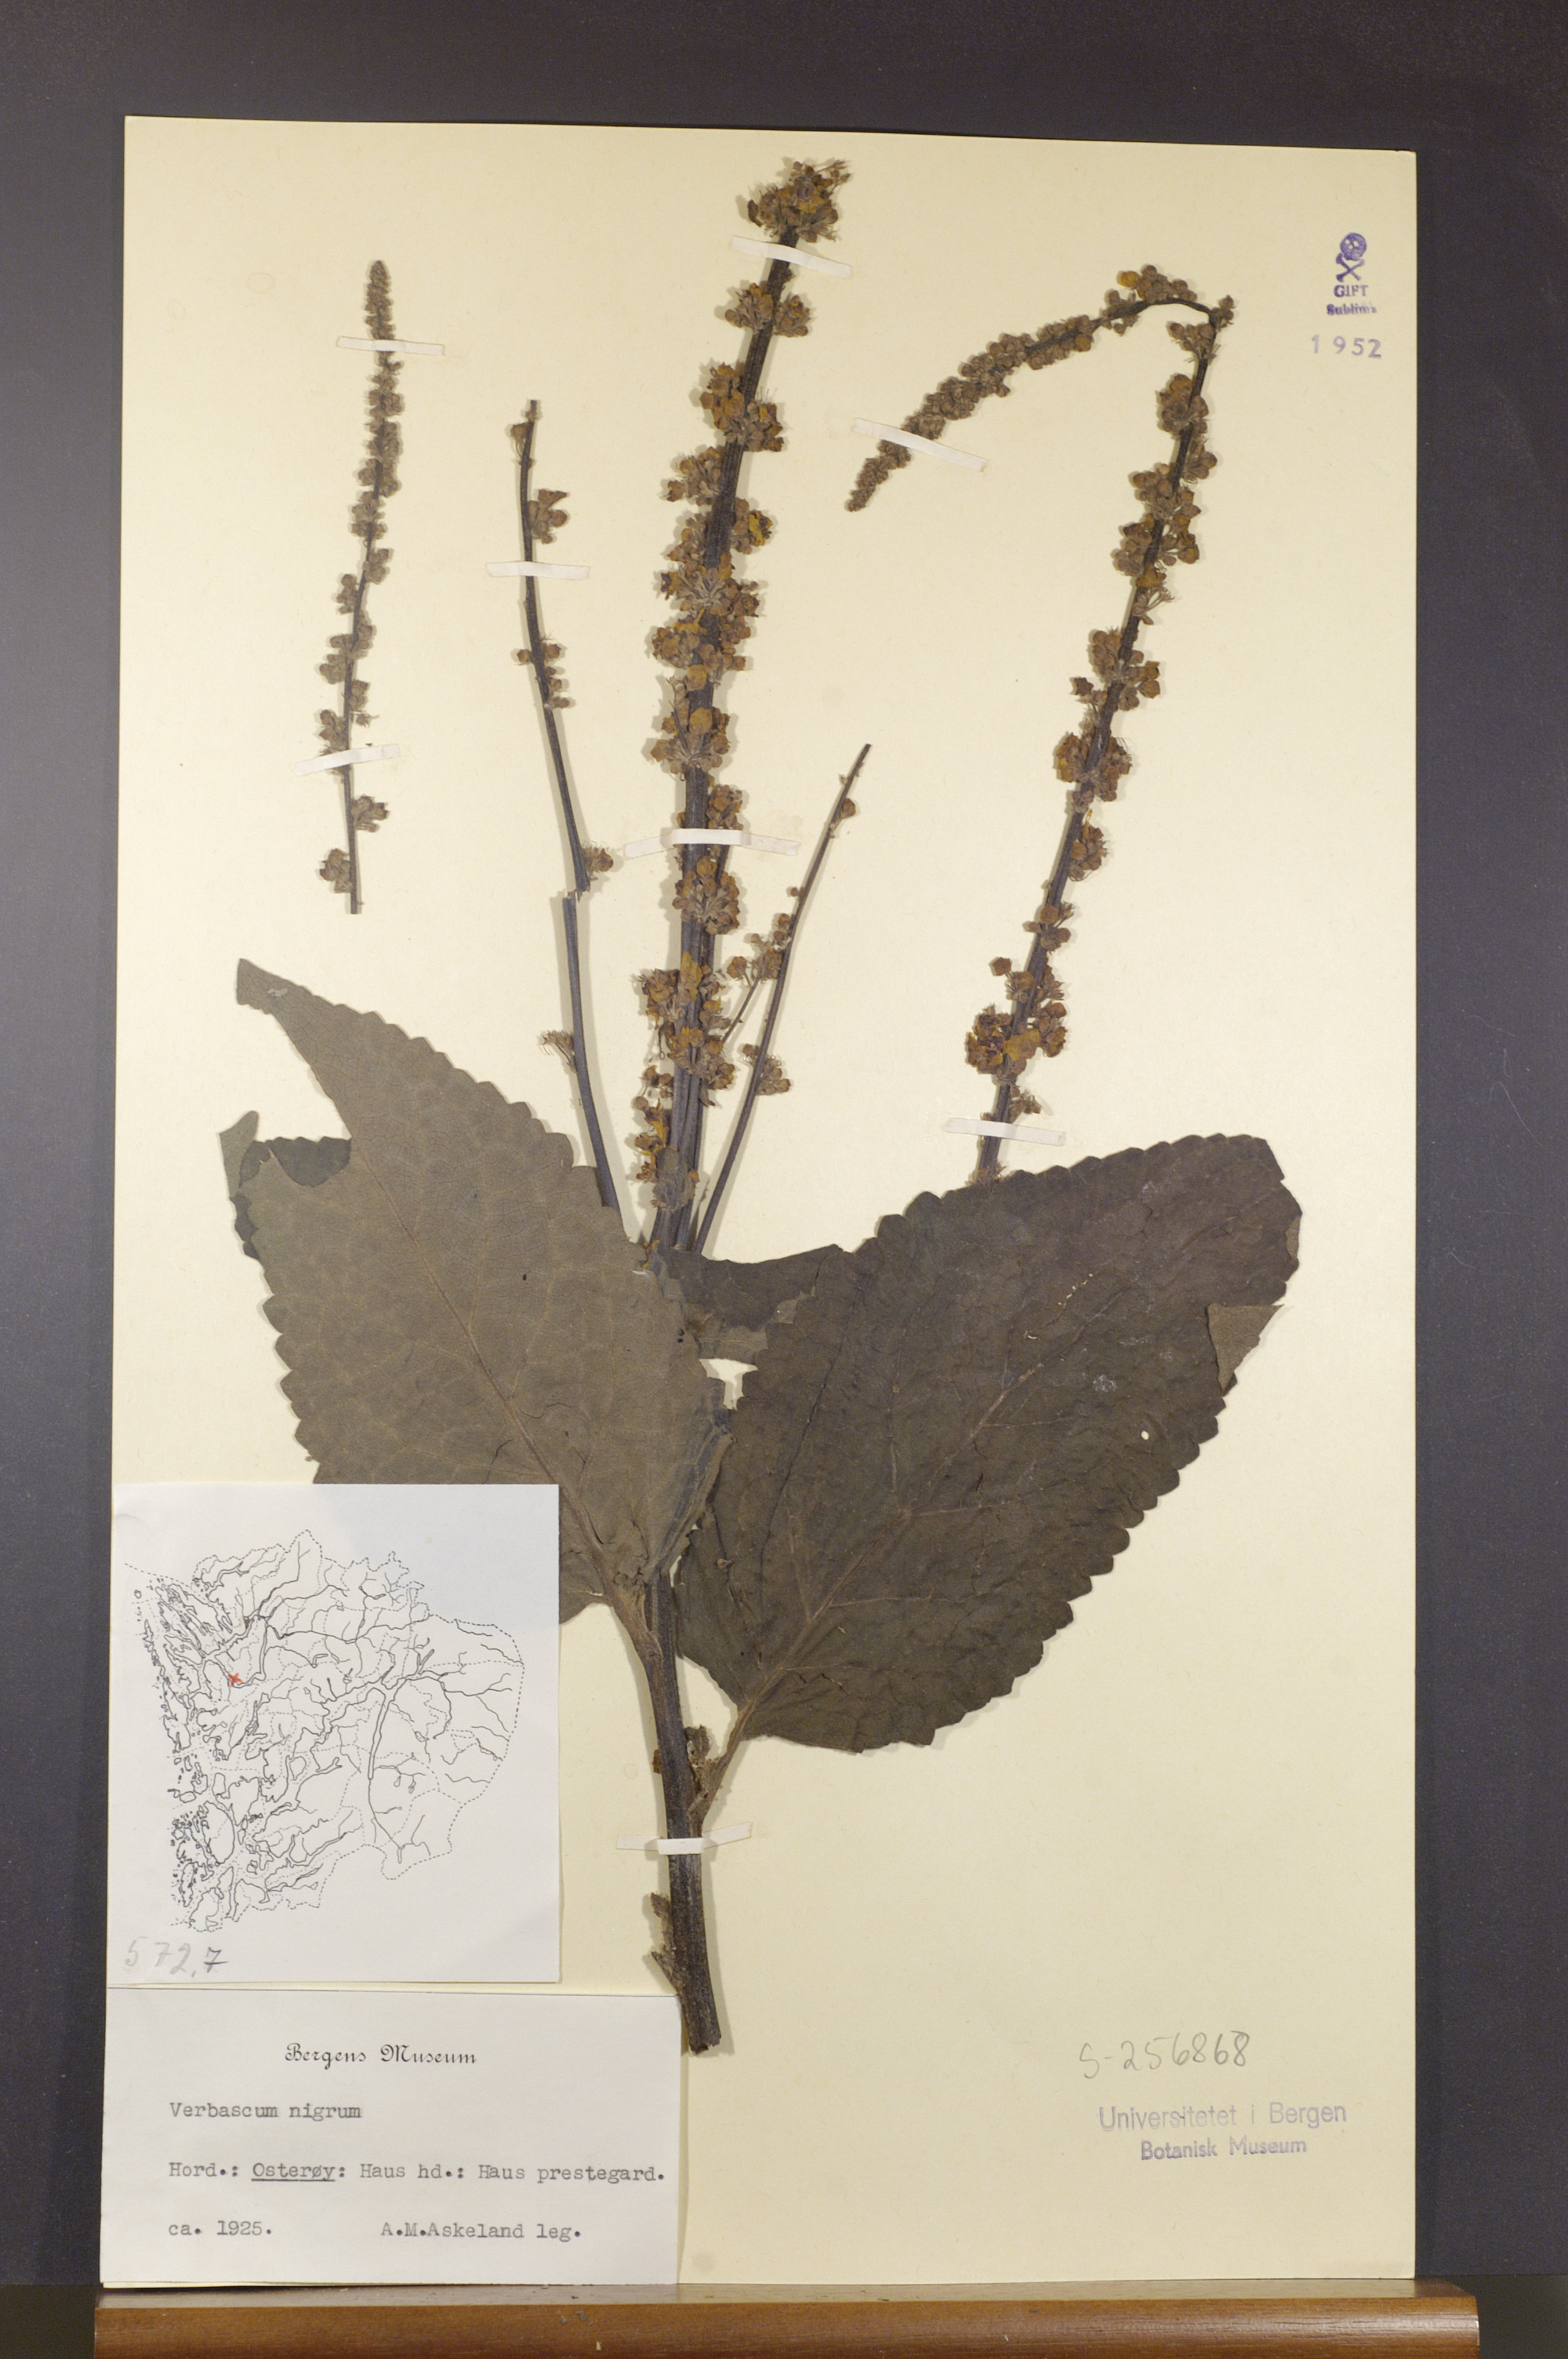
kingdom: Plantae
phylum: Tracheophyta
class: Magnoliopsida
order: Lamiales
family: Scrophulariaceae
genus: Verbascum
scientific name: Verbascum nigrum
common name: Dark mullein
